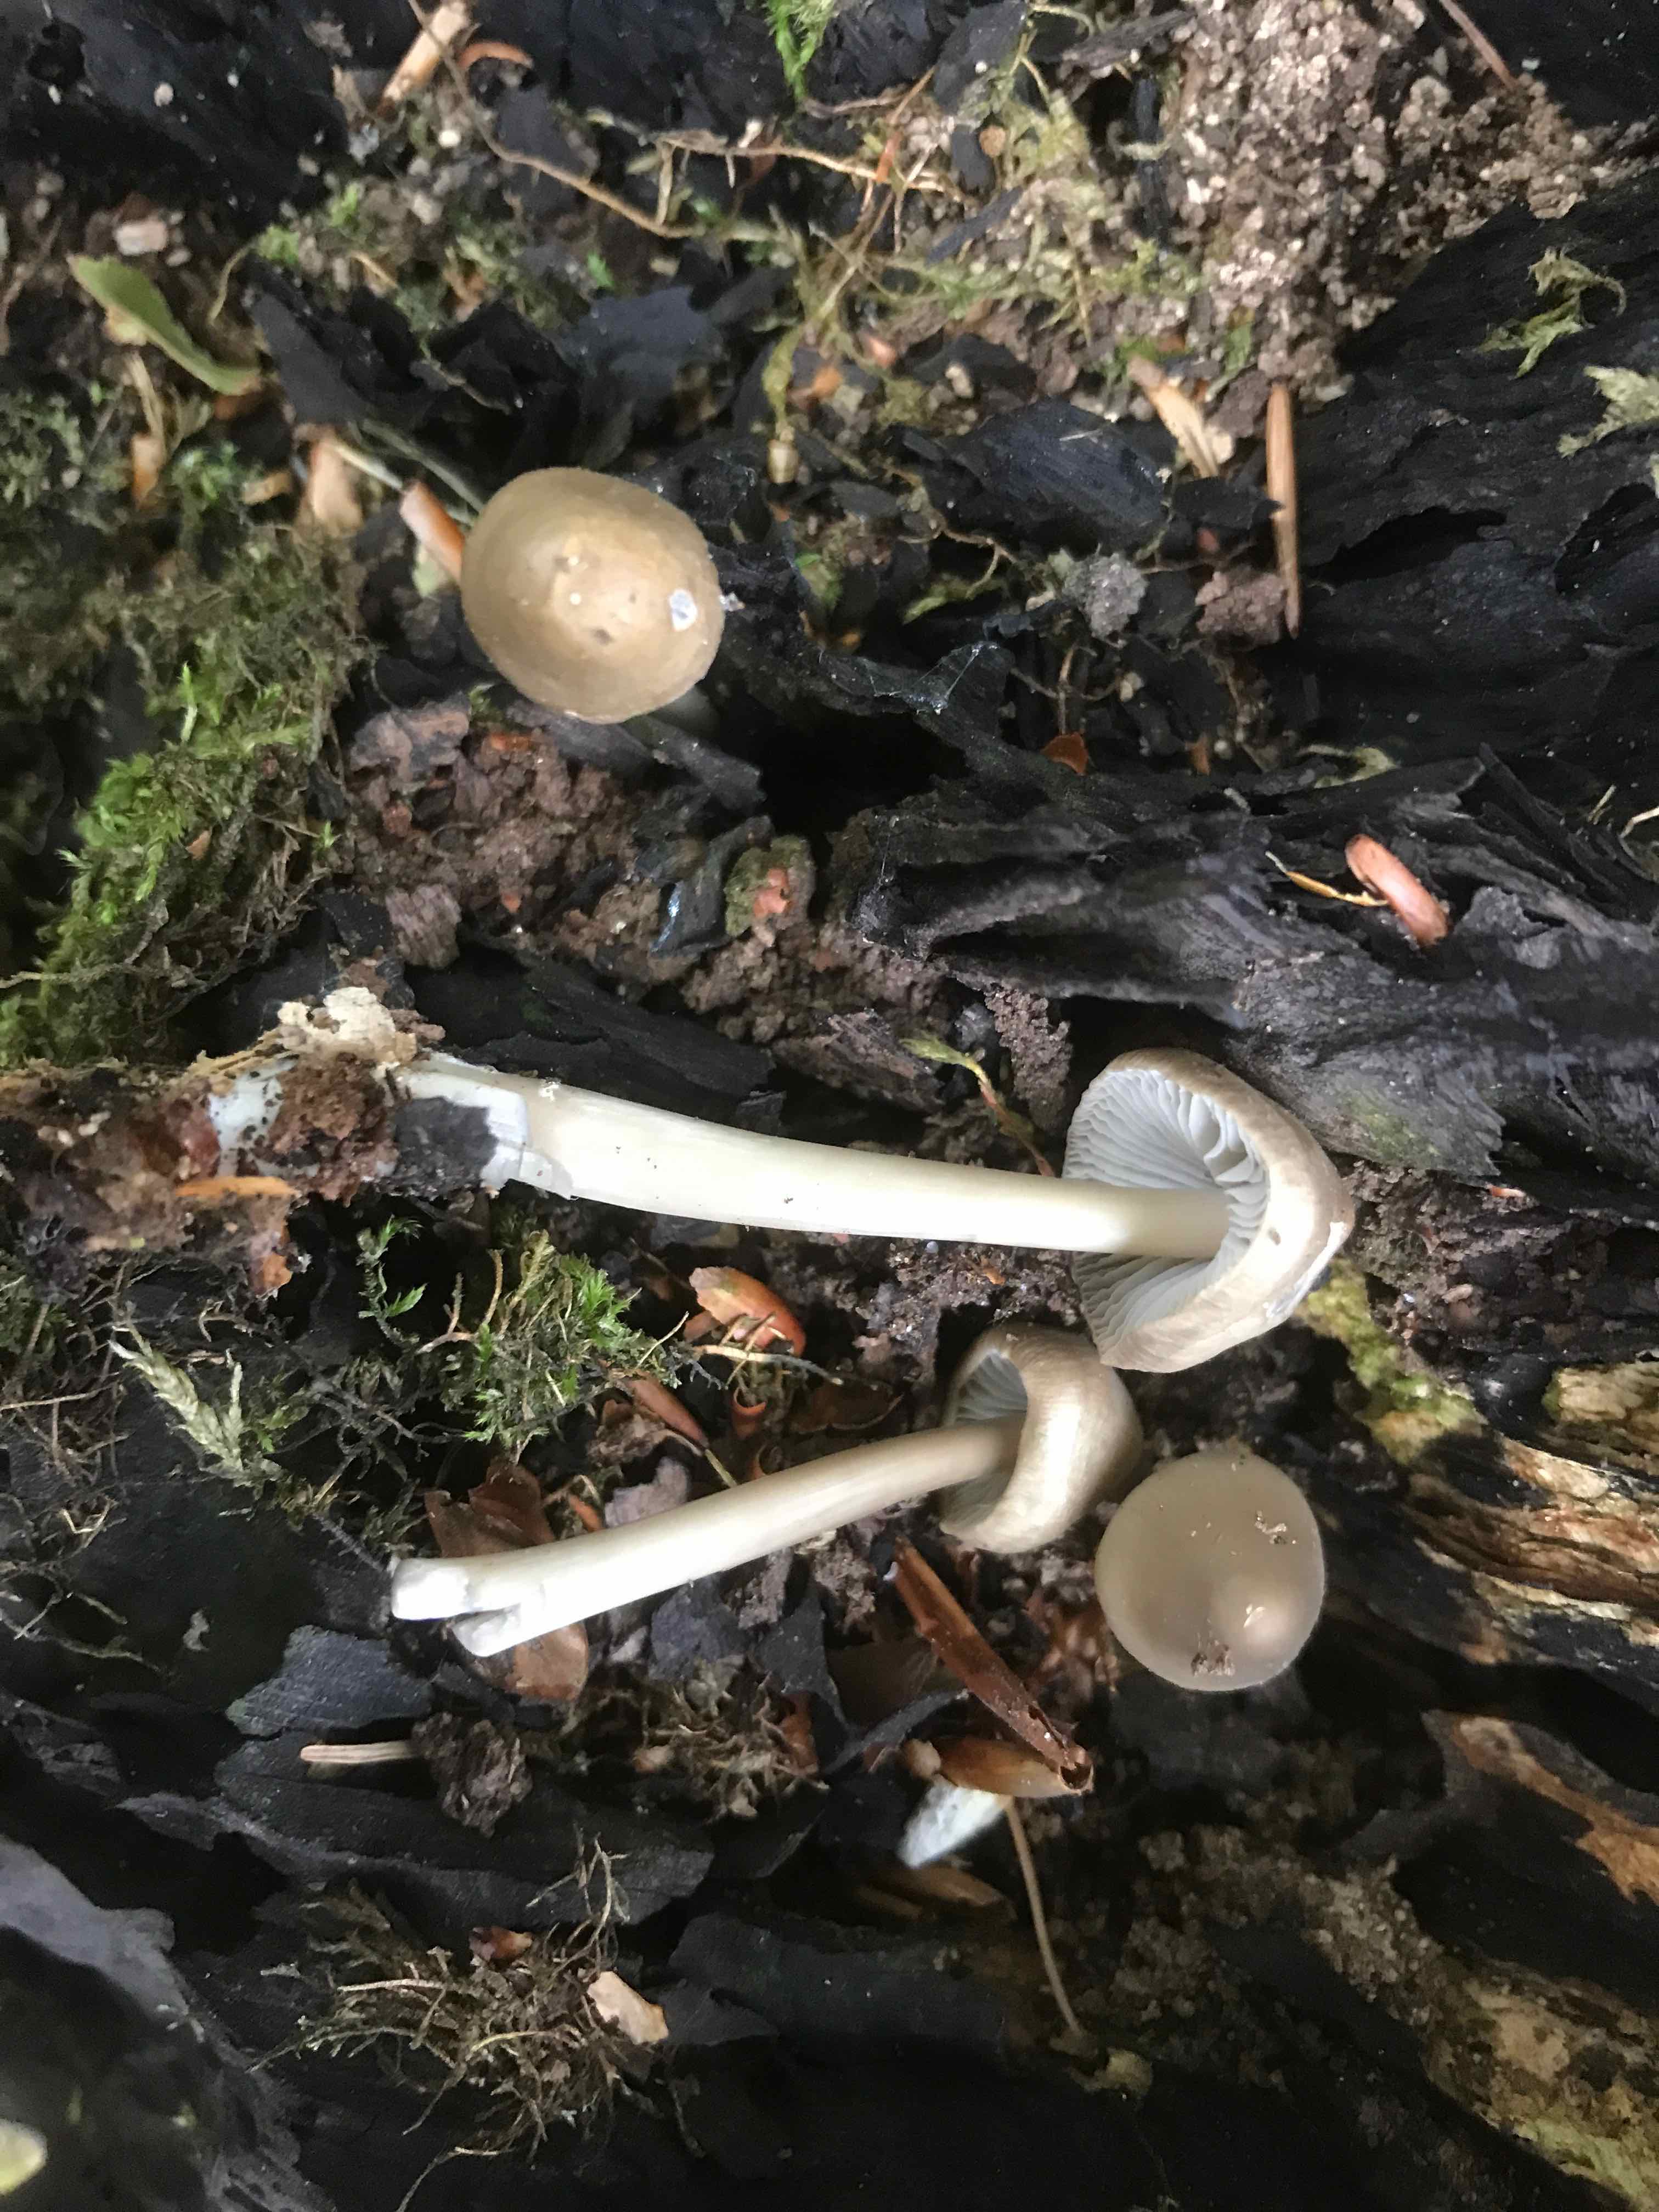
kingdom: Fungi
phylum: Basidiomycota
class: Agaricomycetes
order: Agaricales
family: Mycenaceae
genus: Mycena
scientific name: Mycena galericulata
